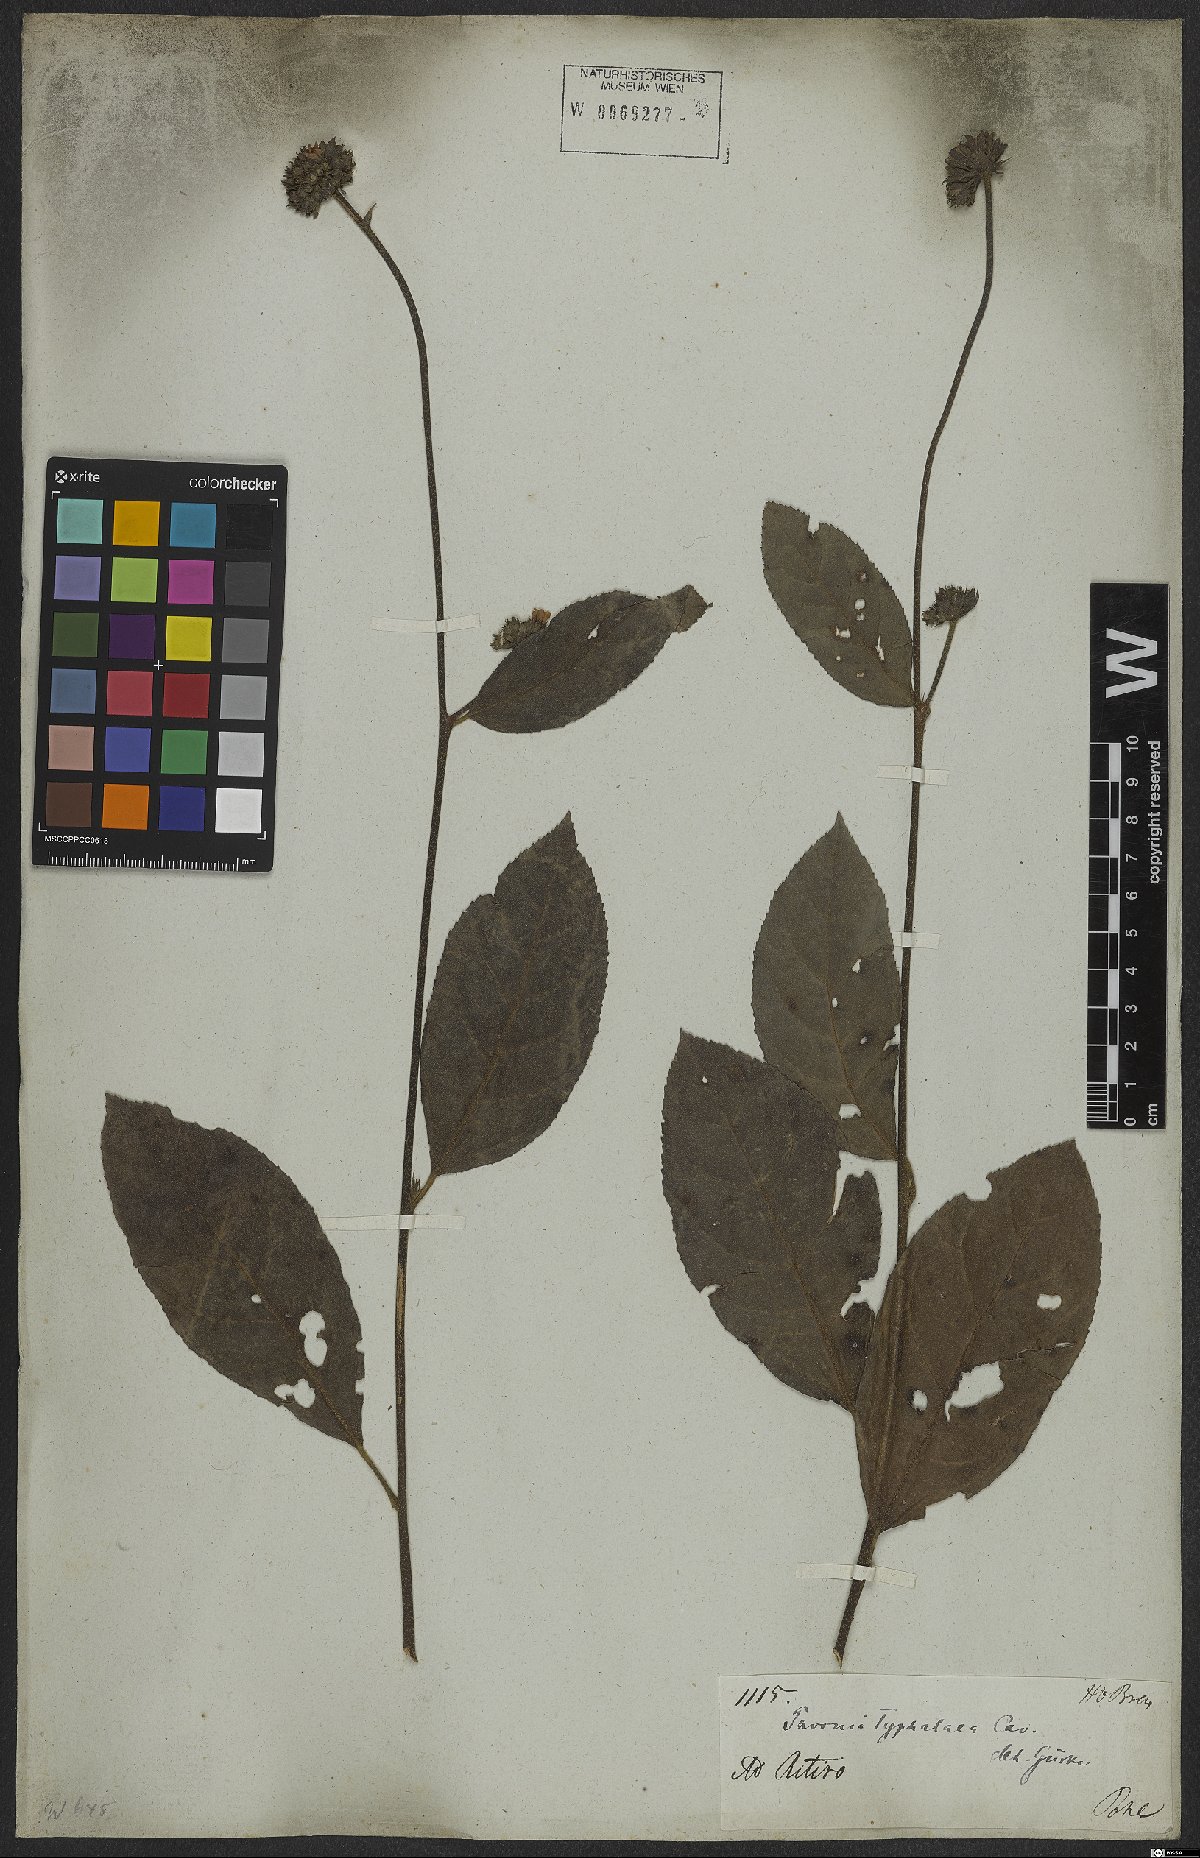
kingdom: Plantae
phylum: Tracheophyta
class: Magnoliopsida
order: Malvales
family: Malvaceae
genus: Pavonia
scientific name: Pavonia fruticosa
